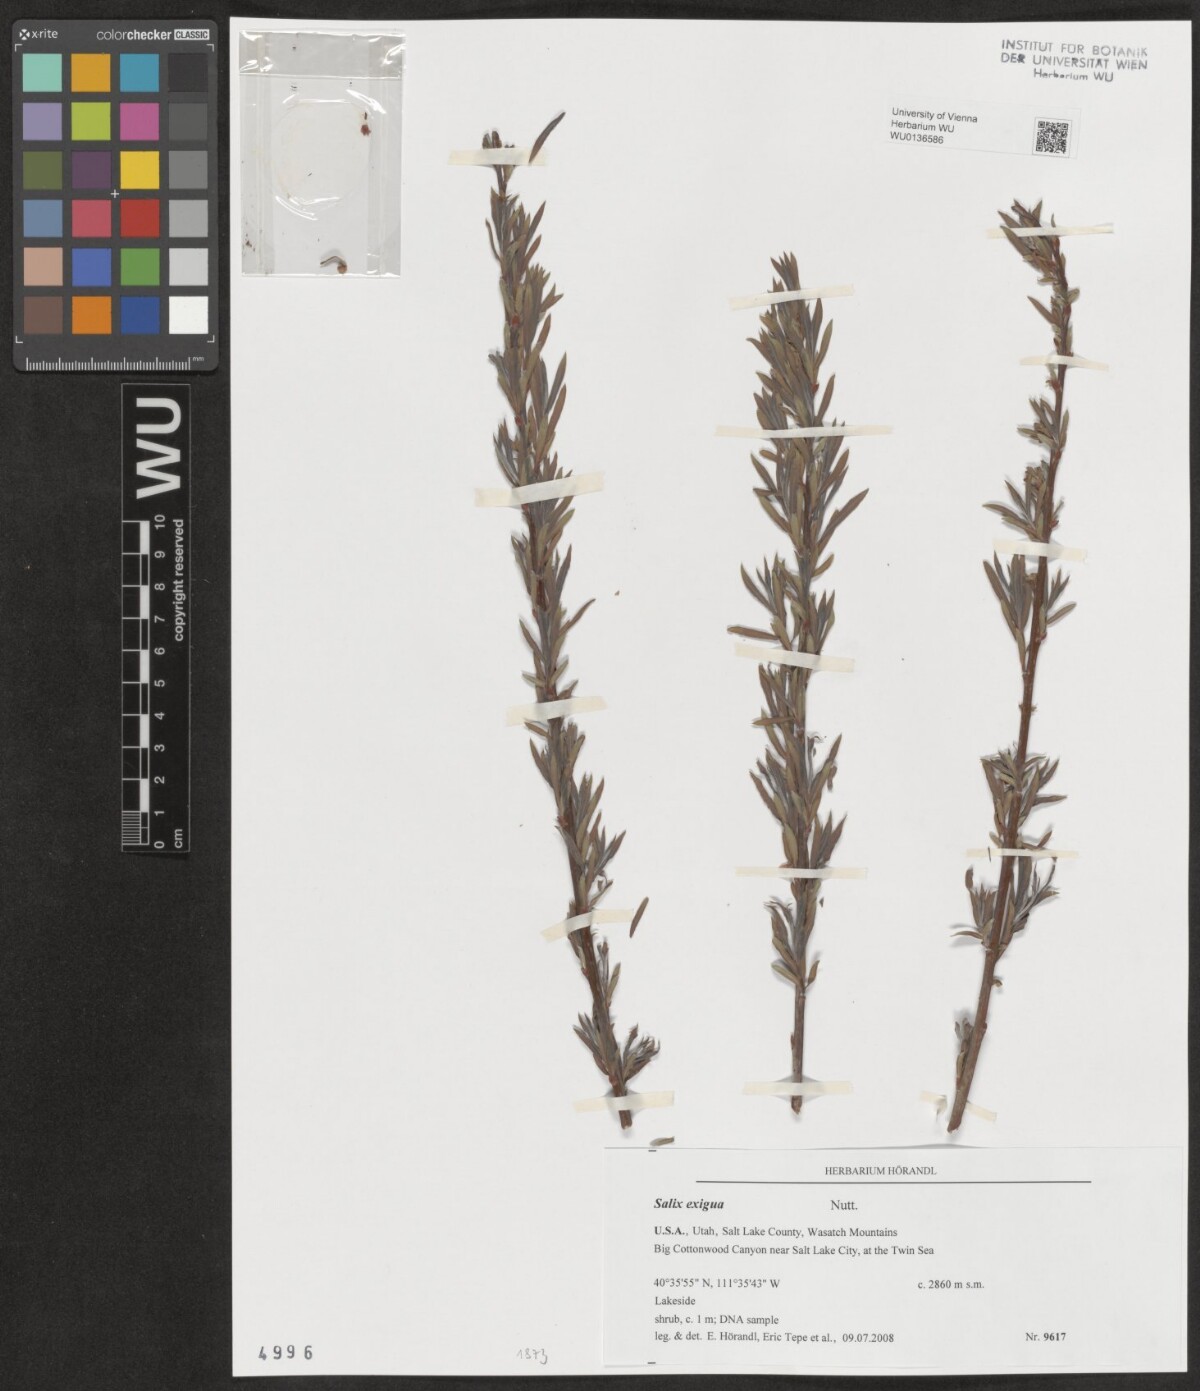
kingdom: Plantae
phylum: Tracheophyta
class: Magnoliopsida
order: Malpighiales
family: Salicaceae
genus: Salix
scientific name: Salix exigua
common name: Coyote willow
